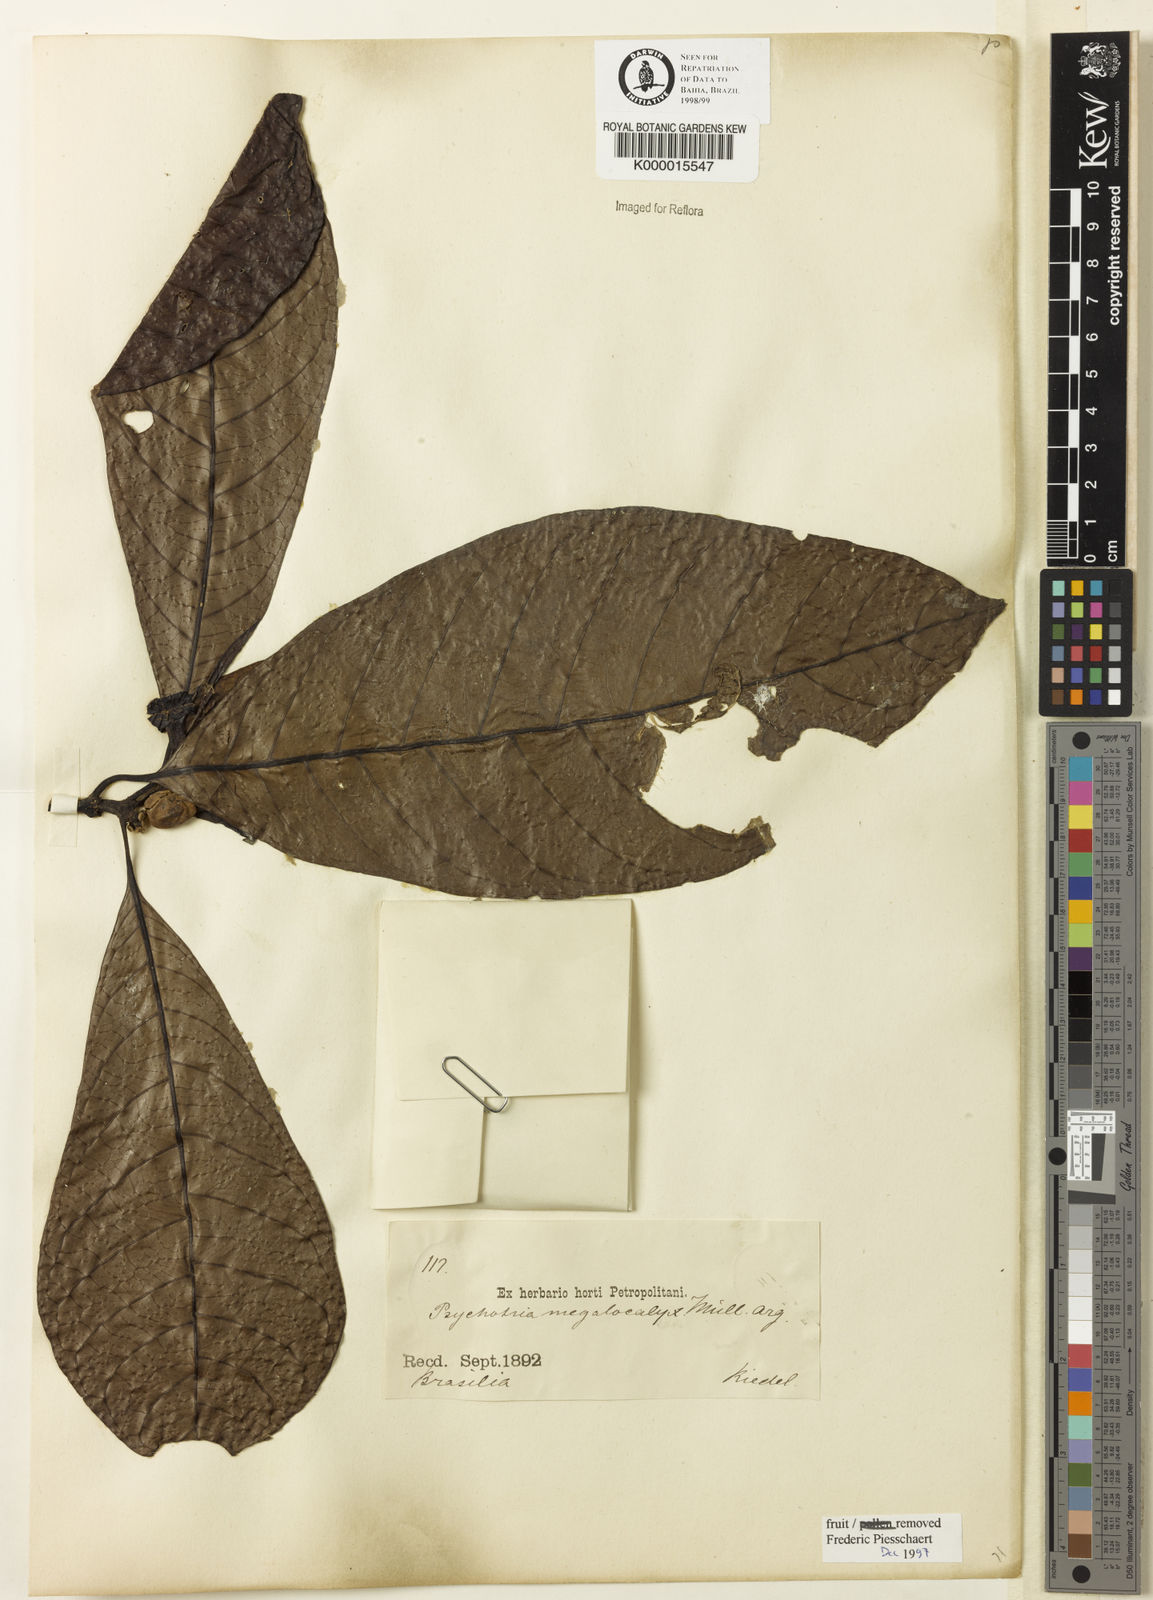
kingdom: Plantae
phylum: Tracheophyta
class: Magnoliopsida
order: Gentianales
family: Rubiaceae
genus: Psychotria
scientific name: Psychotria megalocalyx
